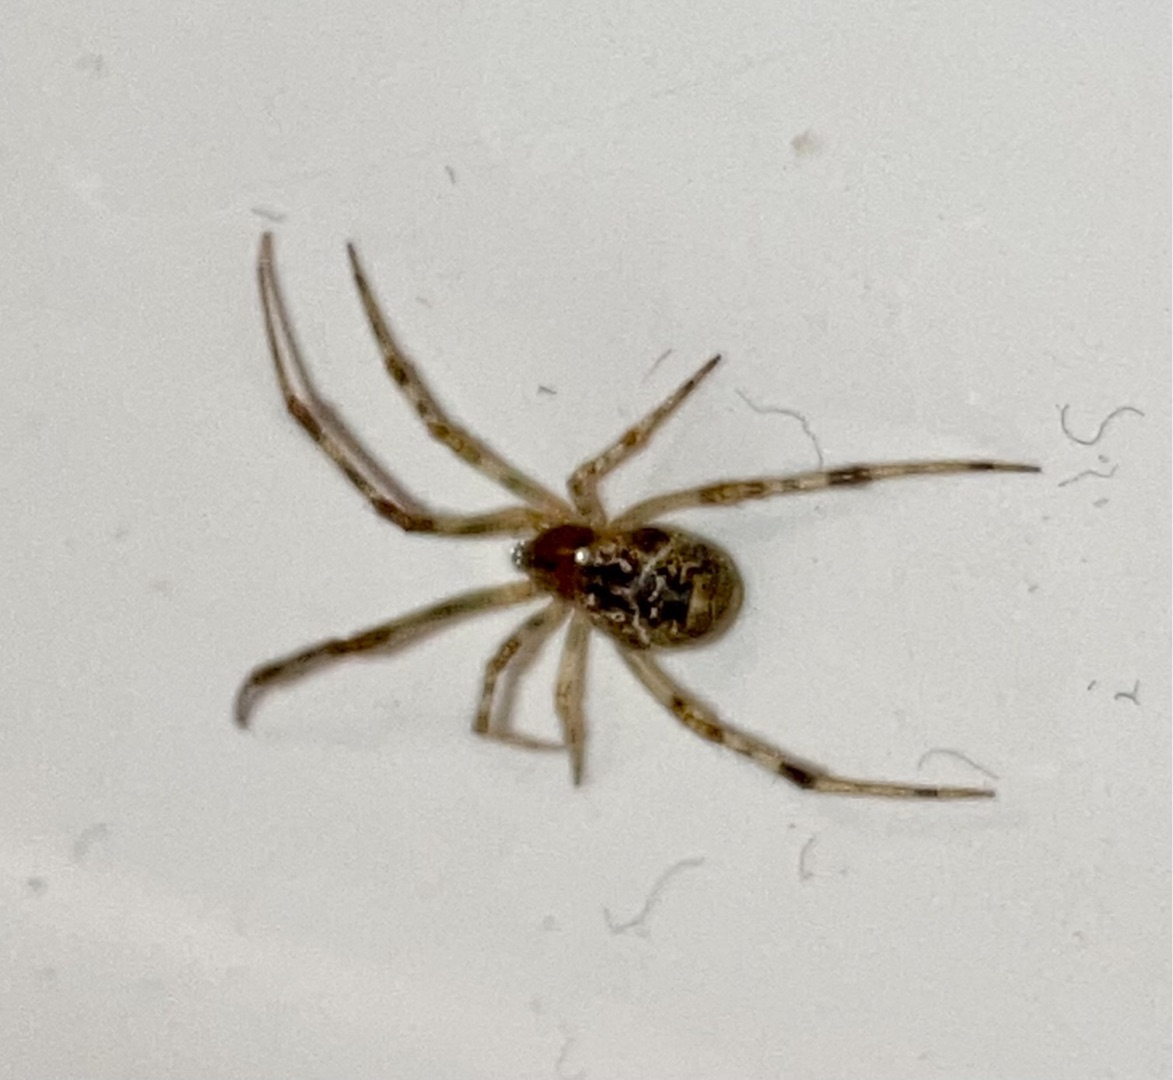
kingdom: Animalia
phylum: Arthropoda
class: Arachnida
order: Araneae
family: Theridiidae
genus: Parasteatoda
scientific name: Parasteatoda tepidariorum
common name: Væksthusspinder
